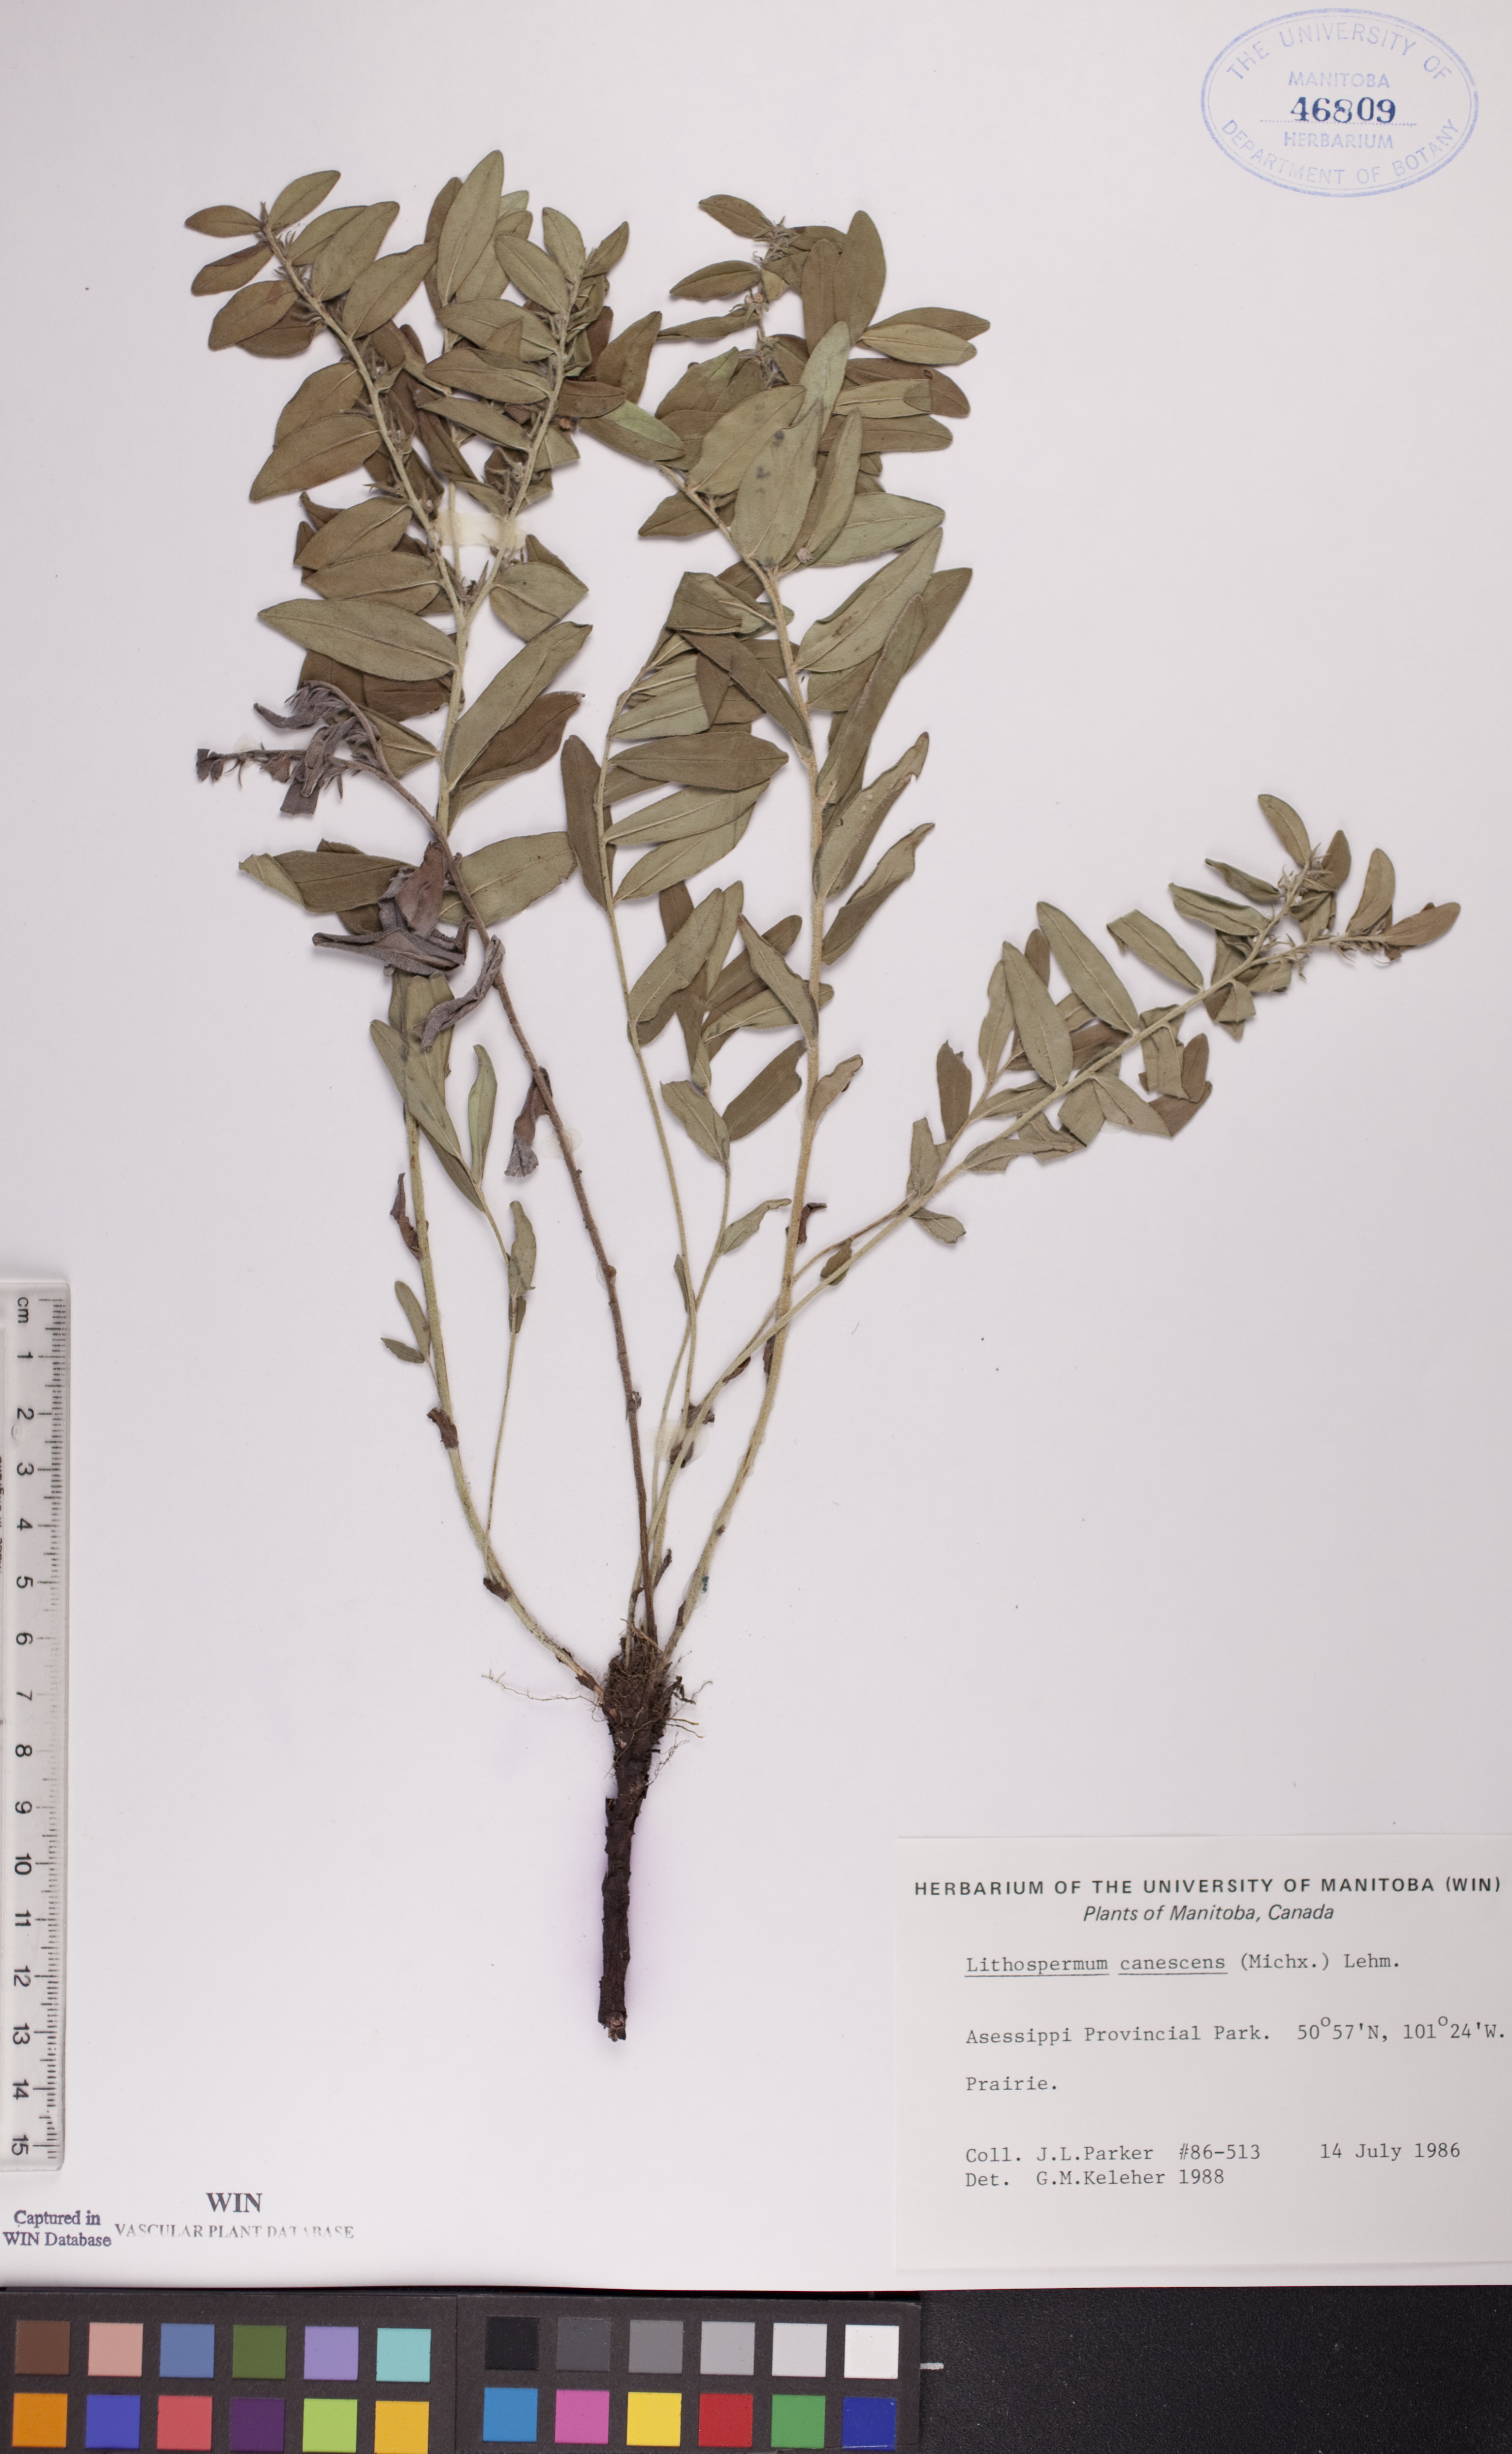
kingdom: Plantae
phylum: Tracheophyta
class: Magnoliopsida
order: Boraginales
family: Boraginaceae
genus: Lithospermum
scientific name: Lithospermum canescens
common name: Hoary puccoon
